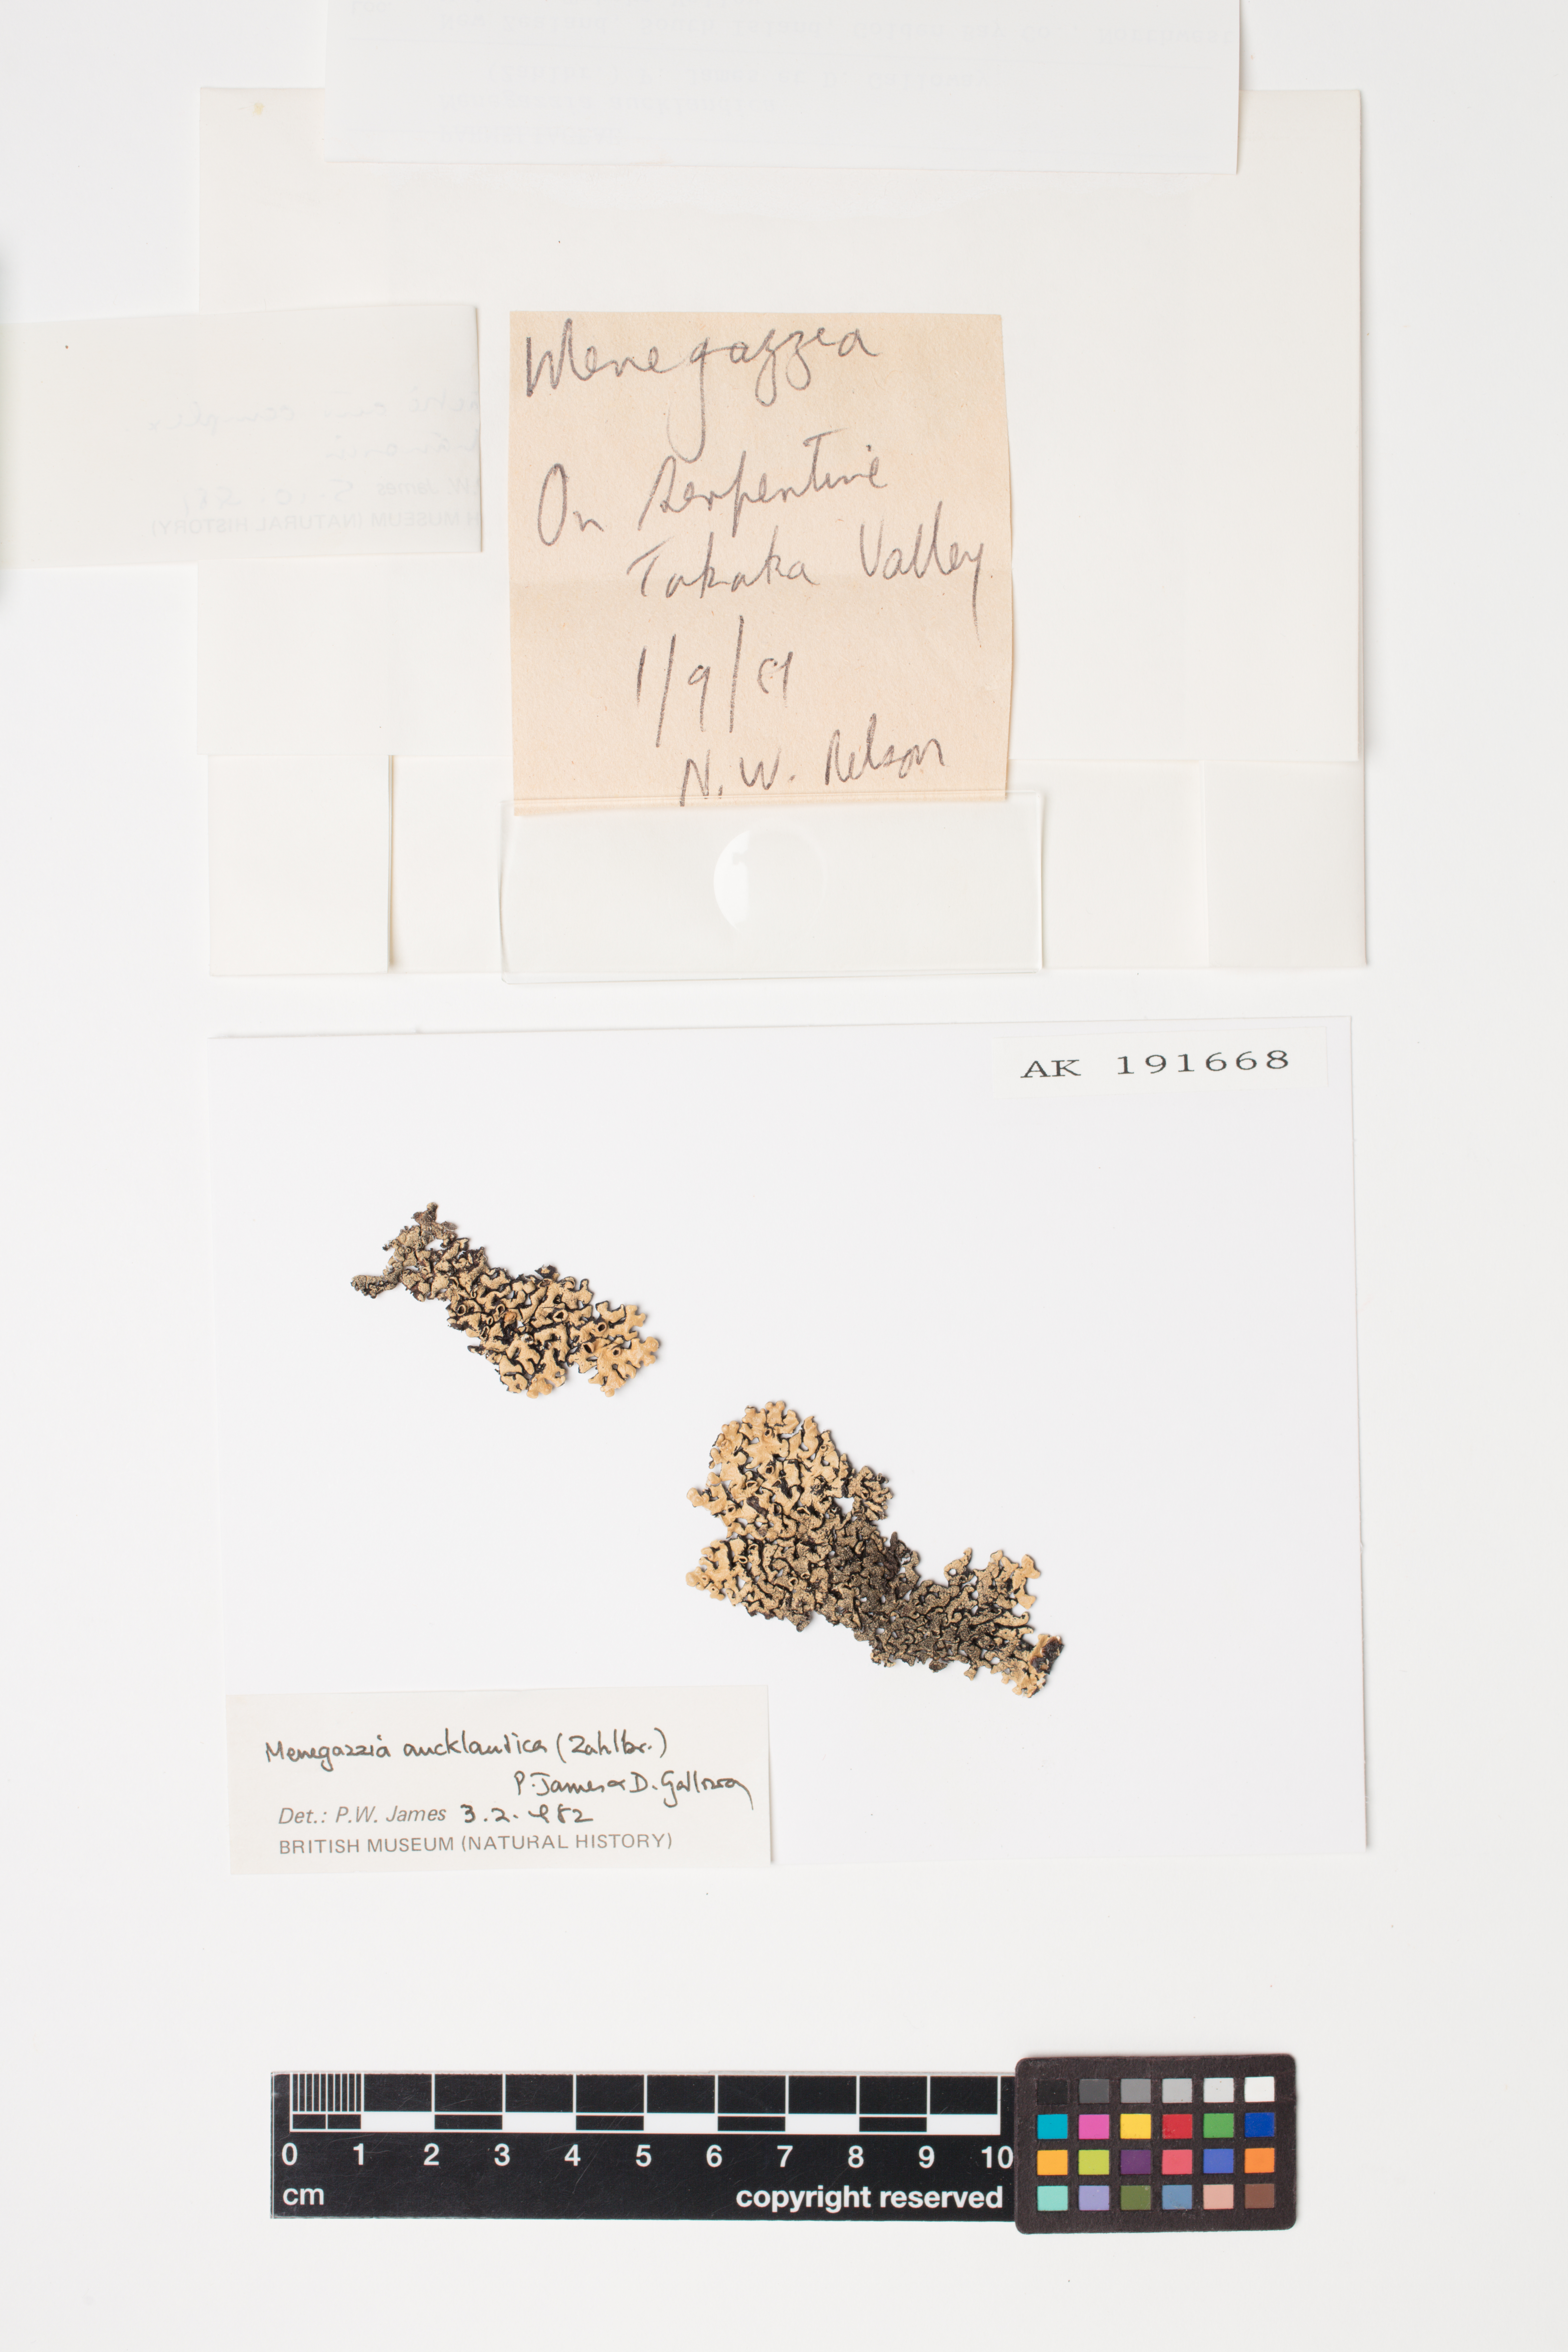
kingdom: Fungi
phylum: Ascomycota
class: Lecanoromycetes
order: Lecanorales
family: Parmeliaceae
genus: Menegazzia
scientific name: Menegazzia aucklandica
